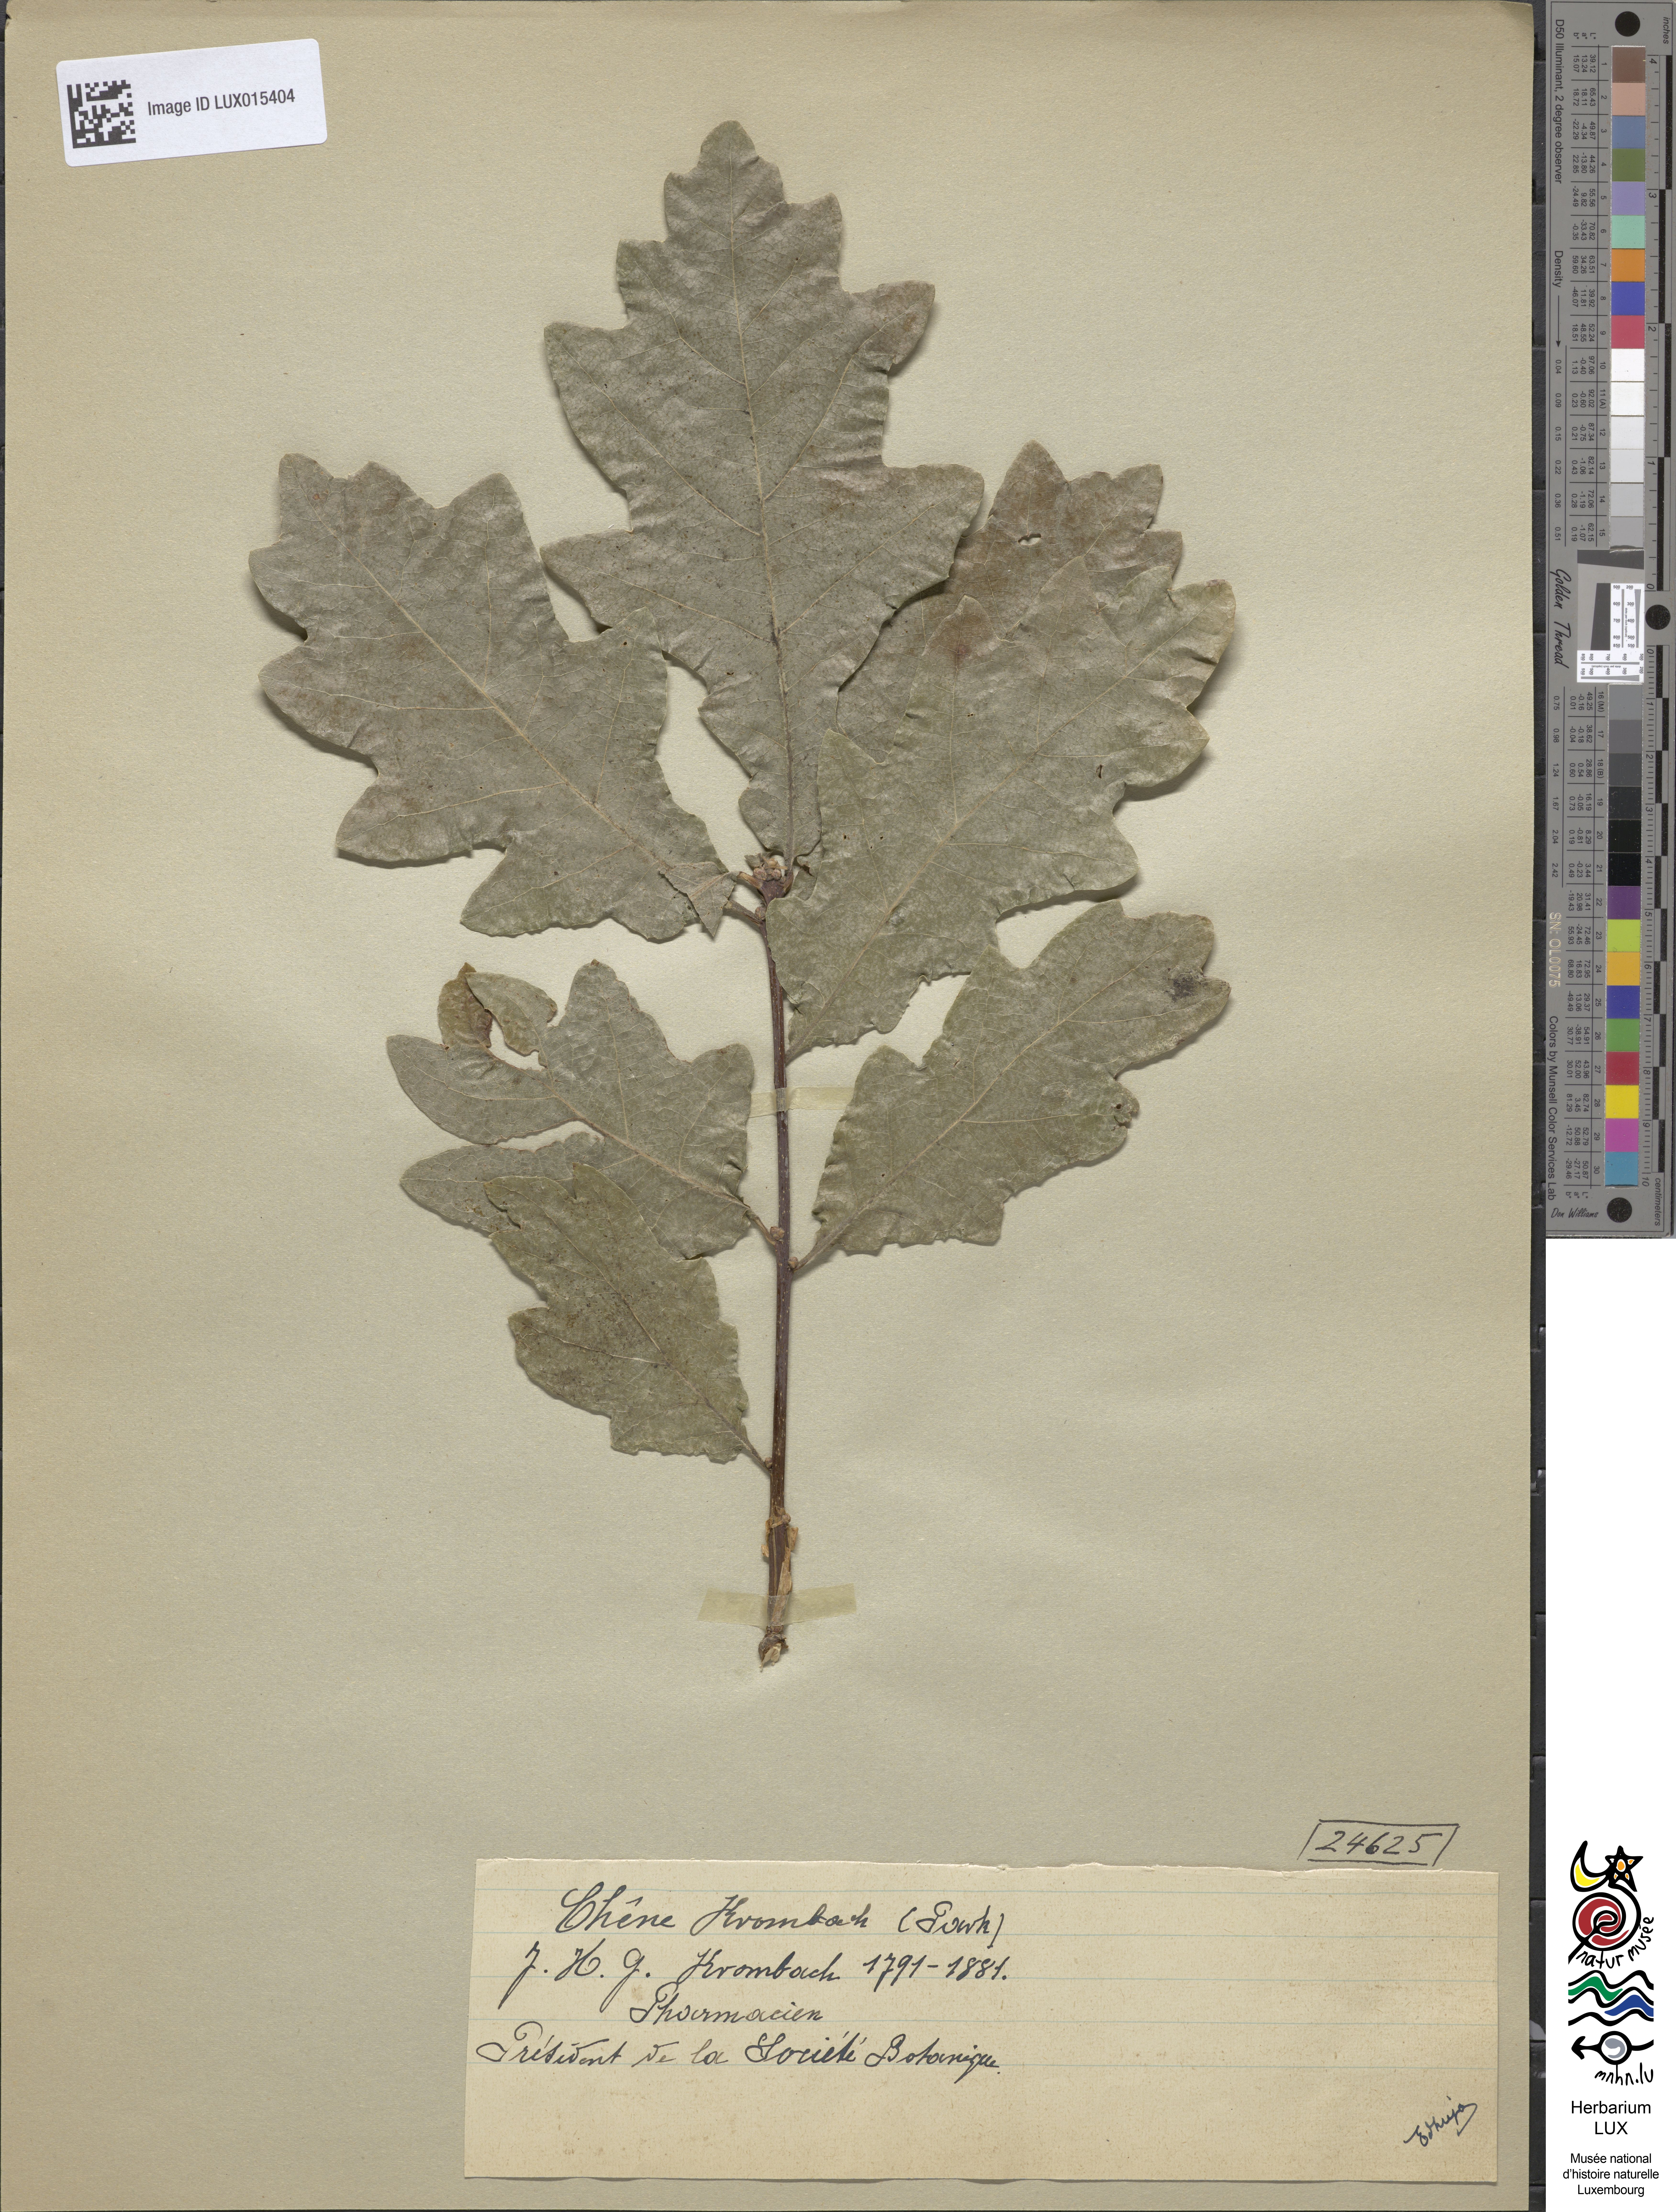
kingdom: Plantae
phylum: Tracheophyta
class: Magnoliopsida
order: Fagales
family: Fagaceae
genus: Quercus
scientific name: Quercus
